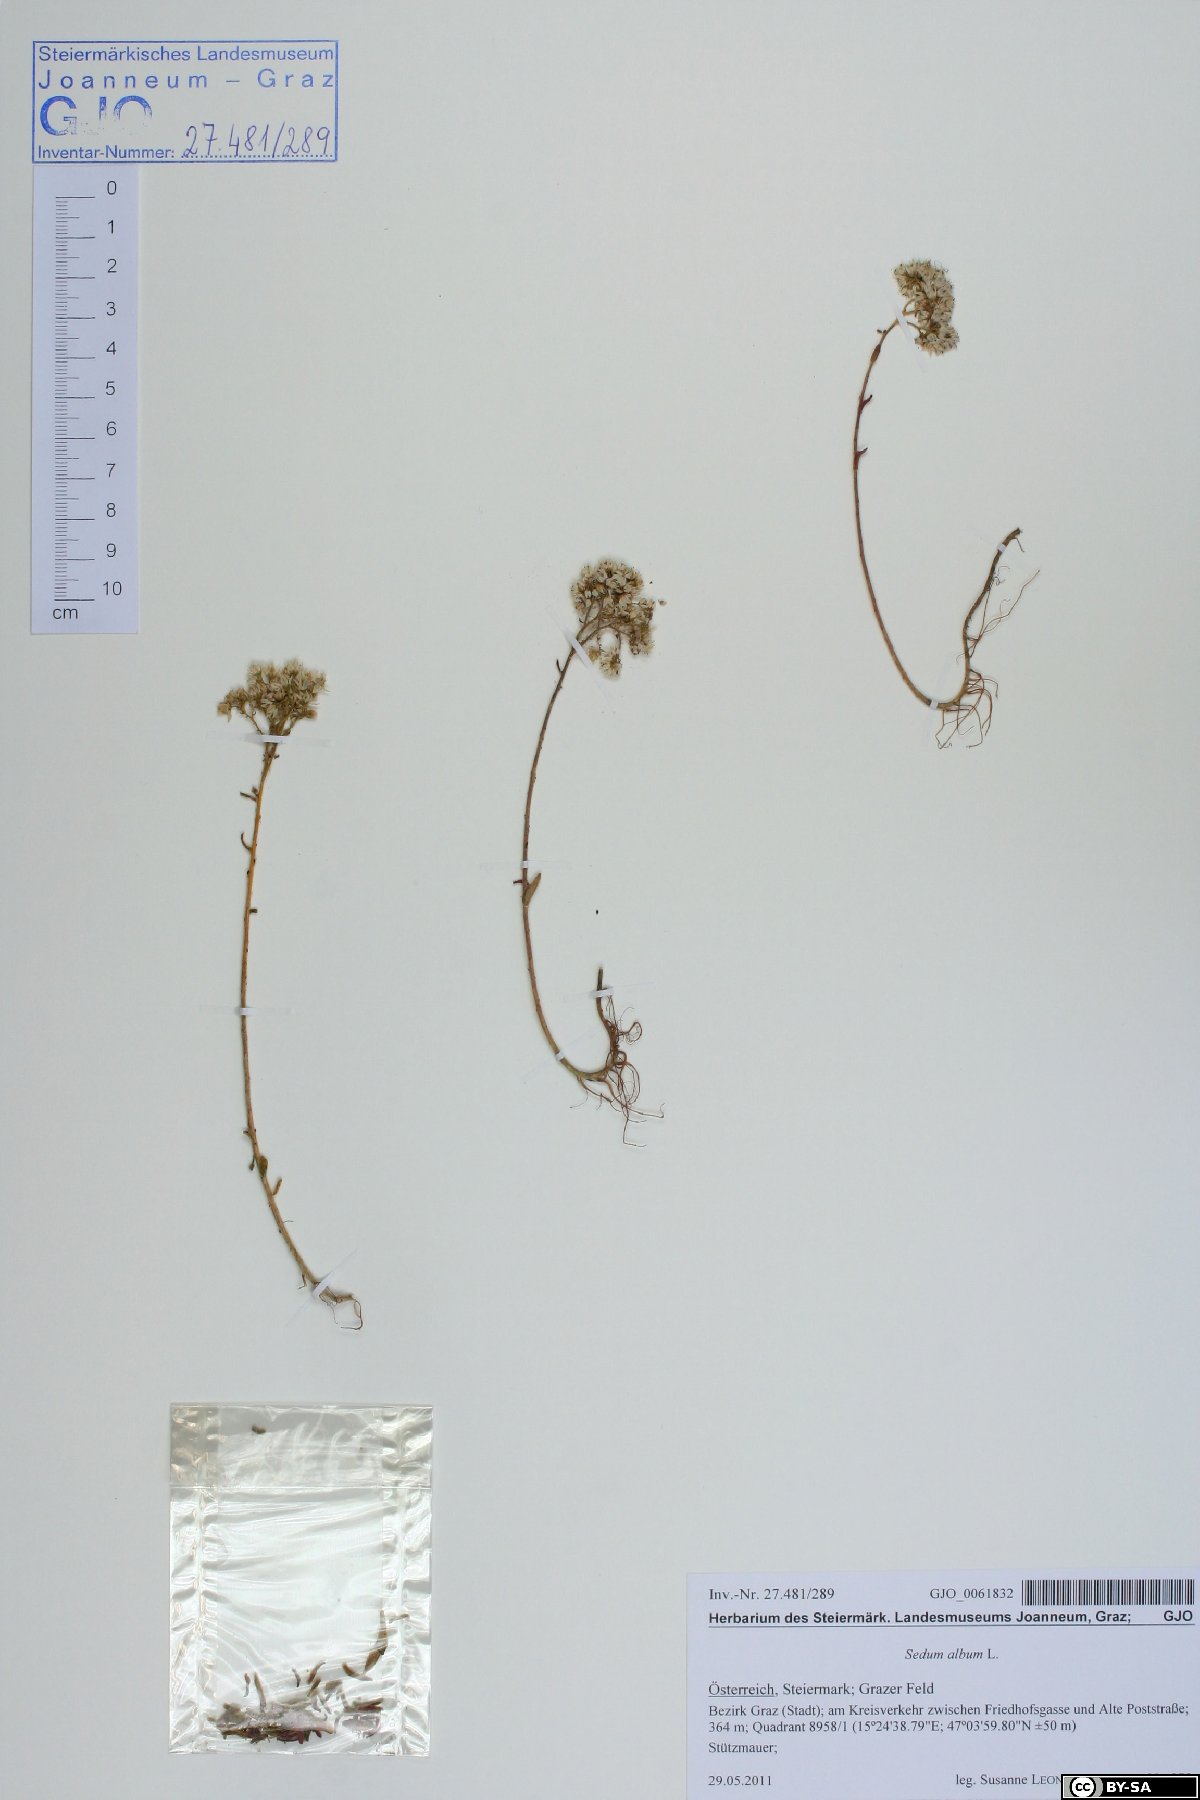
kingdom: Plantae
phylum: Tracheophyta
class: Magnoliopsida
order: Saxifragales
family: Crassulaceae
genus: Sedum
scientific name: Sedum album
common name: White stonecrop
